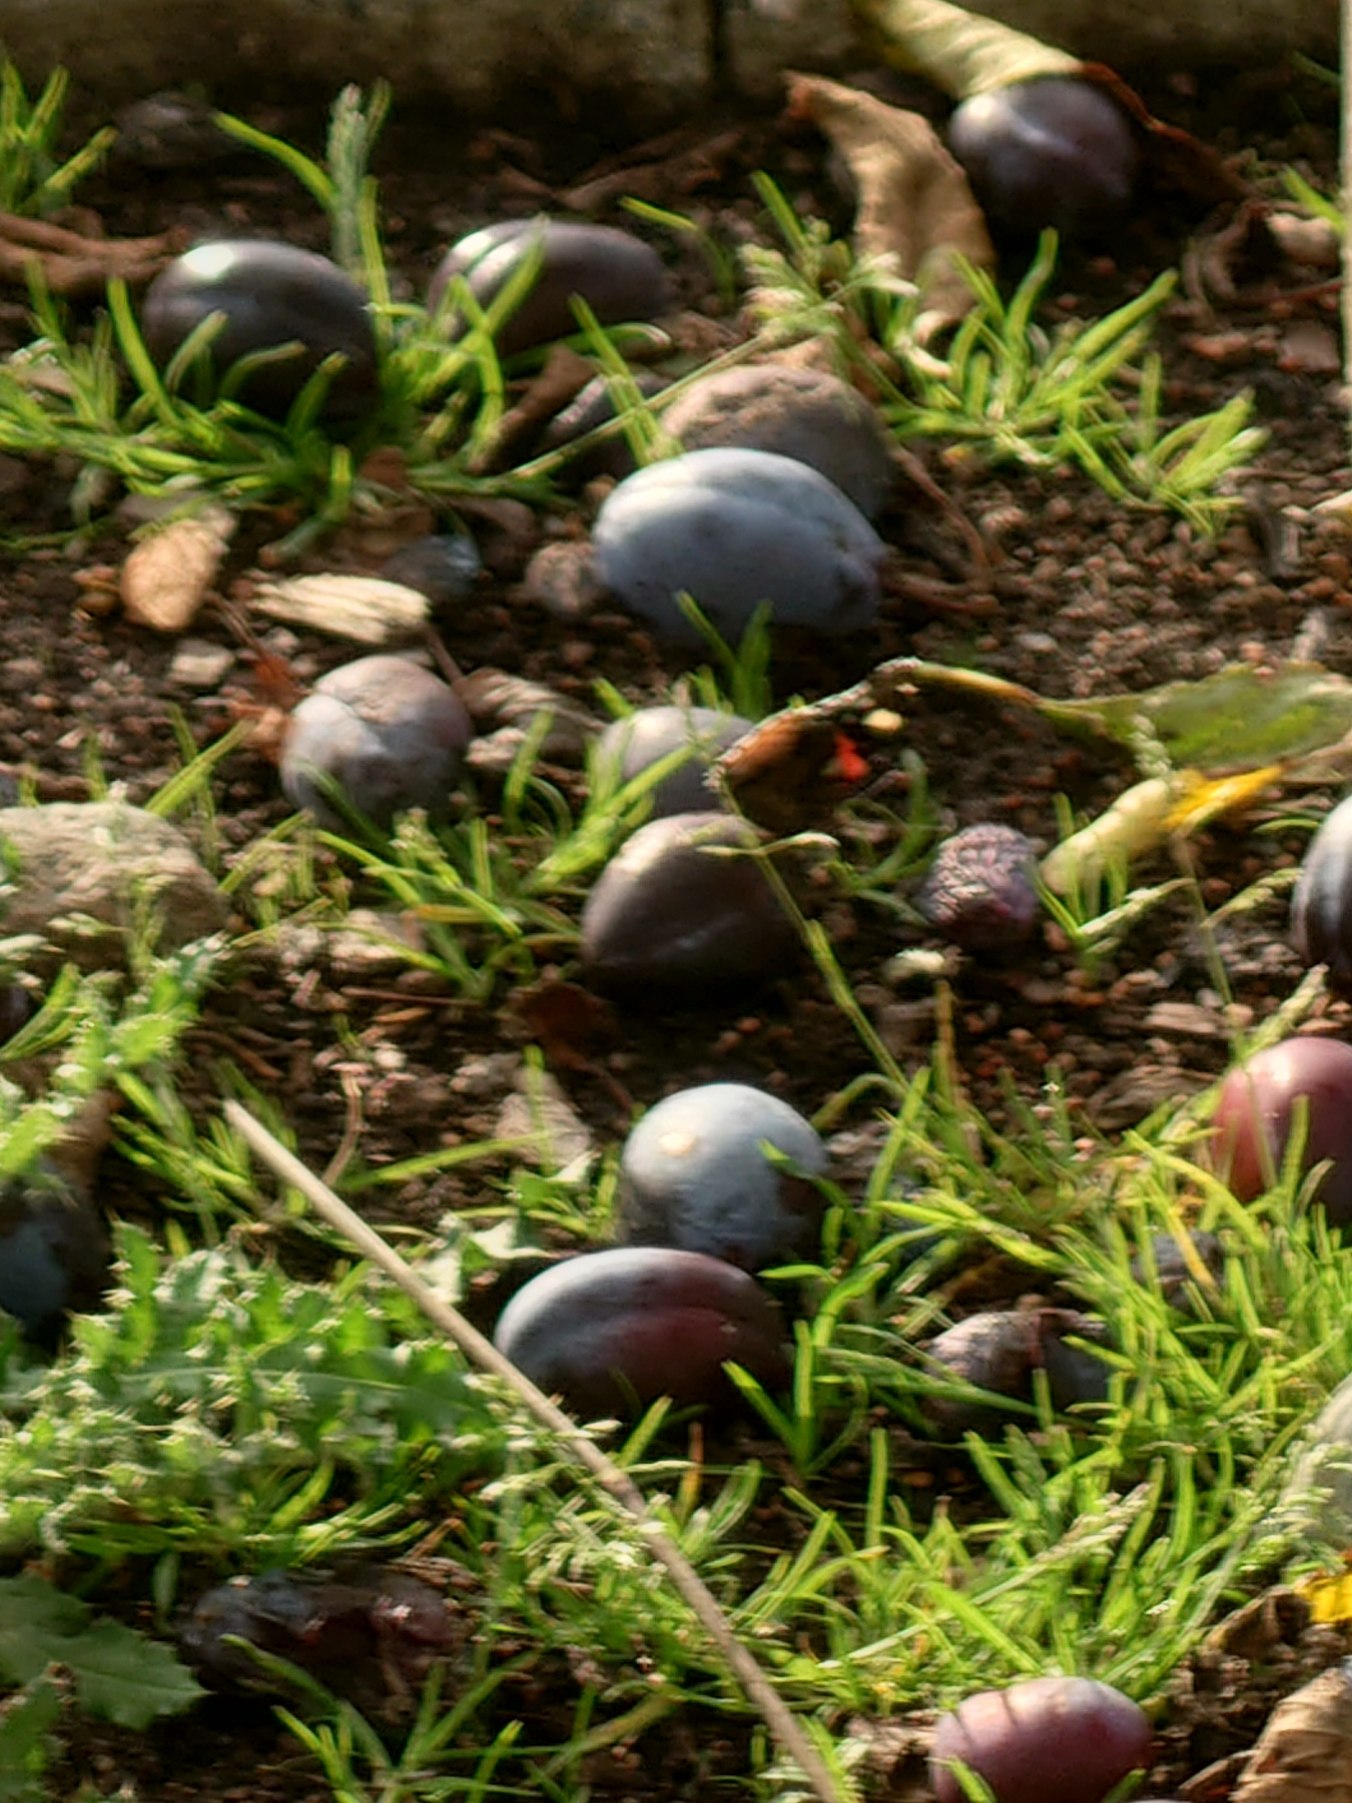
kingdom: Animalia
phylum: Arthropoda
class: Insecta
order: Lepidoptera
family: Nymphalidae
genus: Vanessa
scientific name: Vanessa atalanta
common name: Admiral
